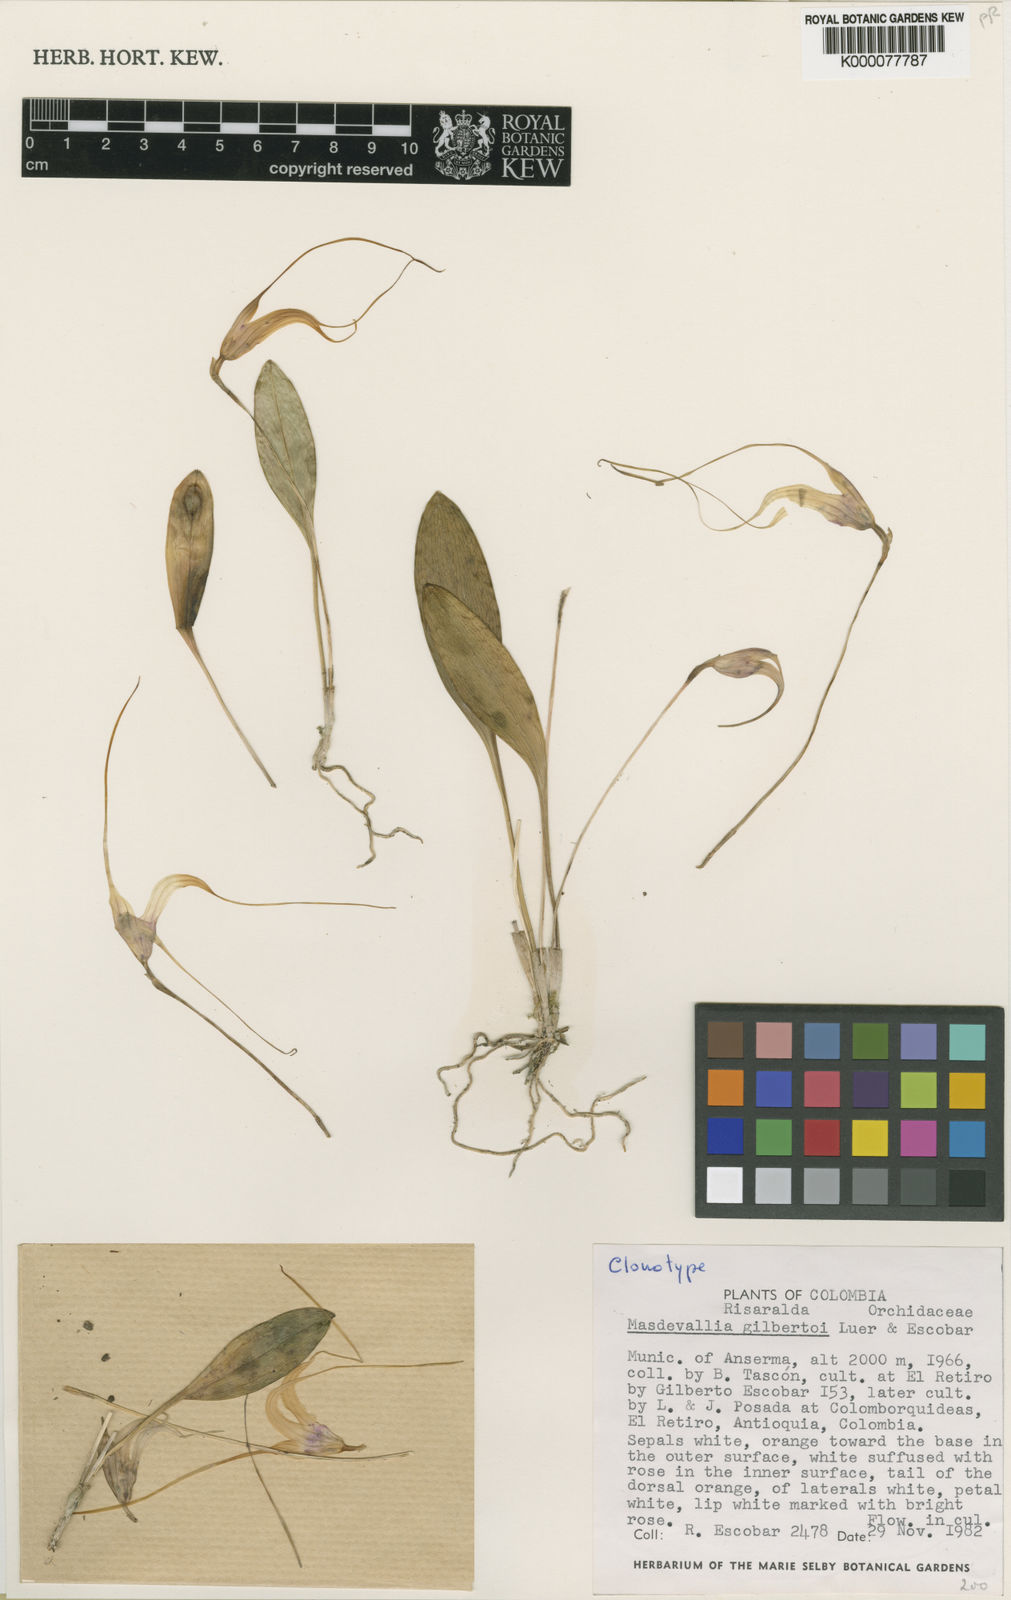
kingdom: Plantae
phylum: Tracheophyta
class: Liliopsida
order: Asparagales
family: Orchidaceae
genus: Masdevallia
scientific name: Masdevallia gilbertoi
